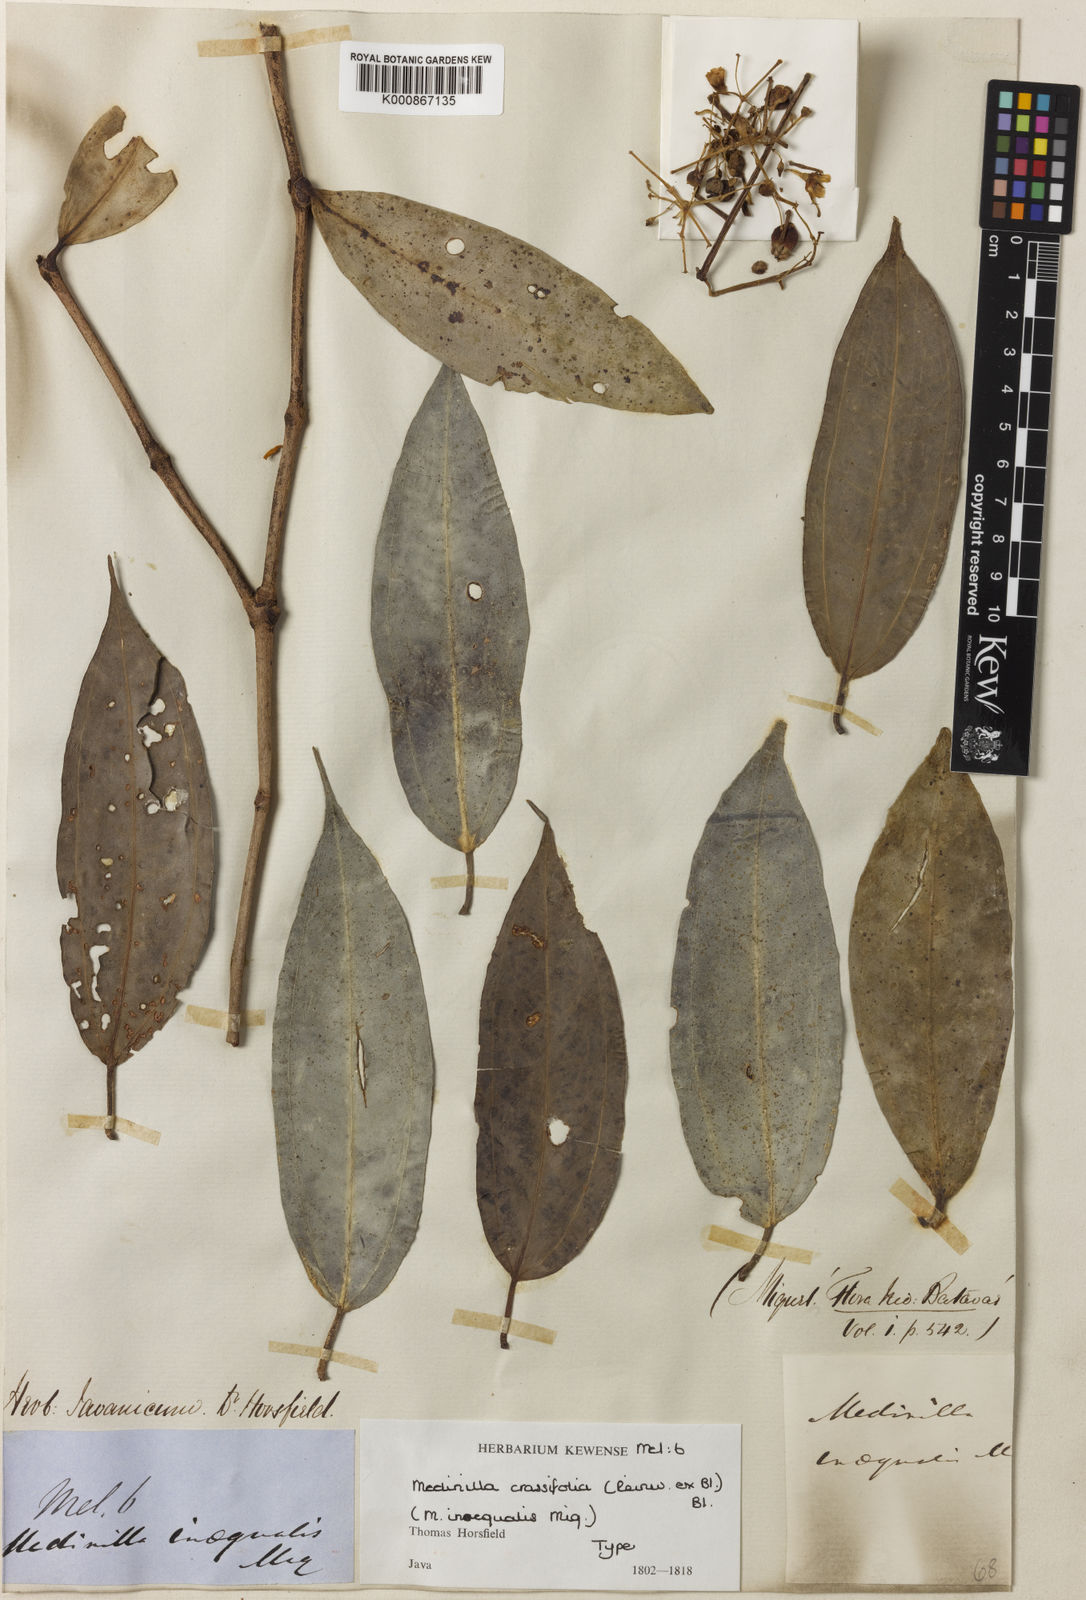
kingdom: Plantae
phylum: Tracheophyta
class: Magnoliopsida
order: Myrtales
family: Melastomataceae
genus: Medinilla
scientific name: Medinilla crassifolia
